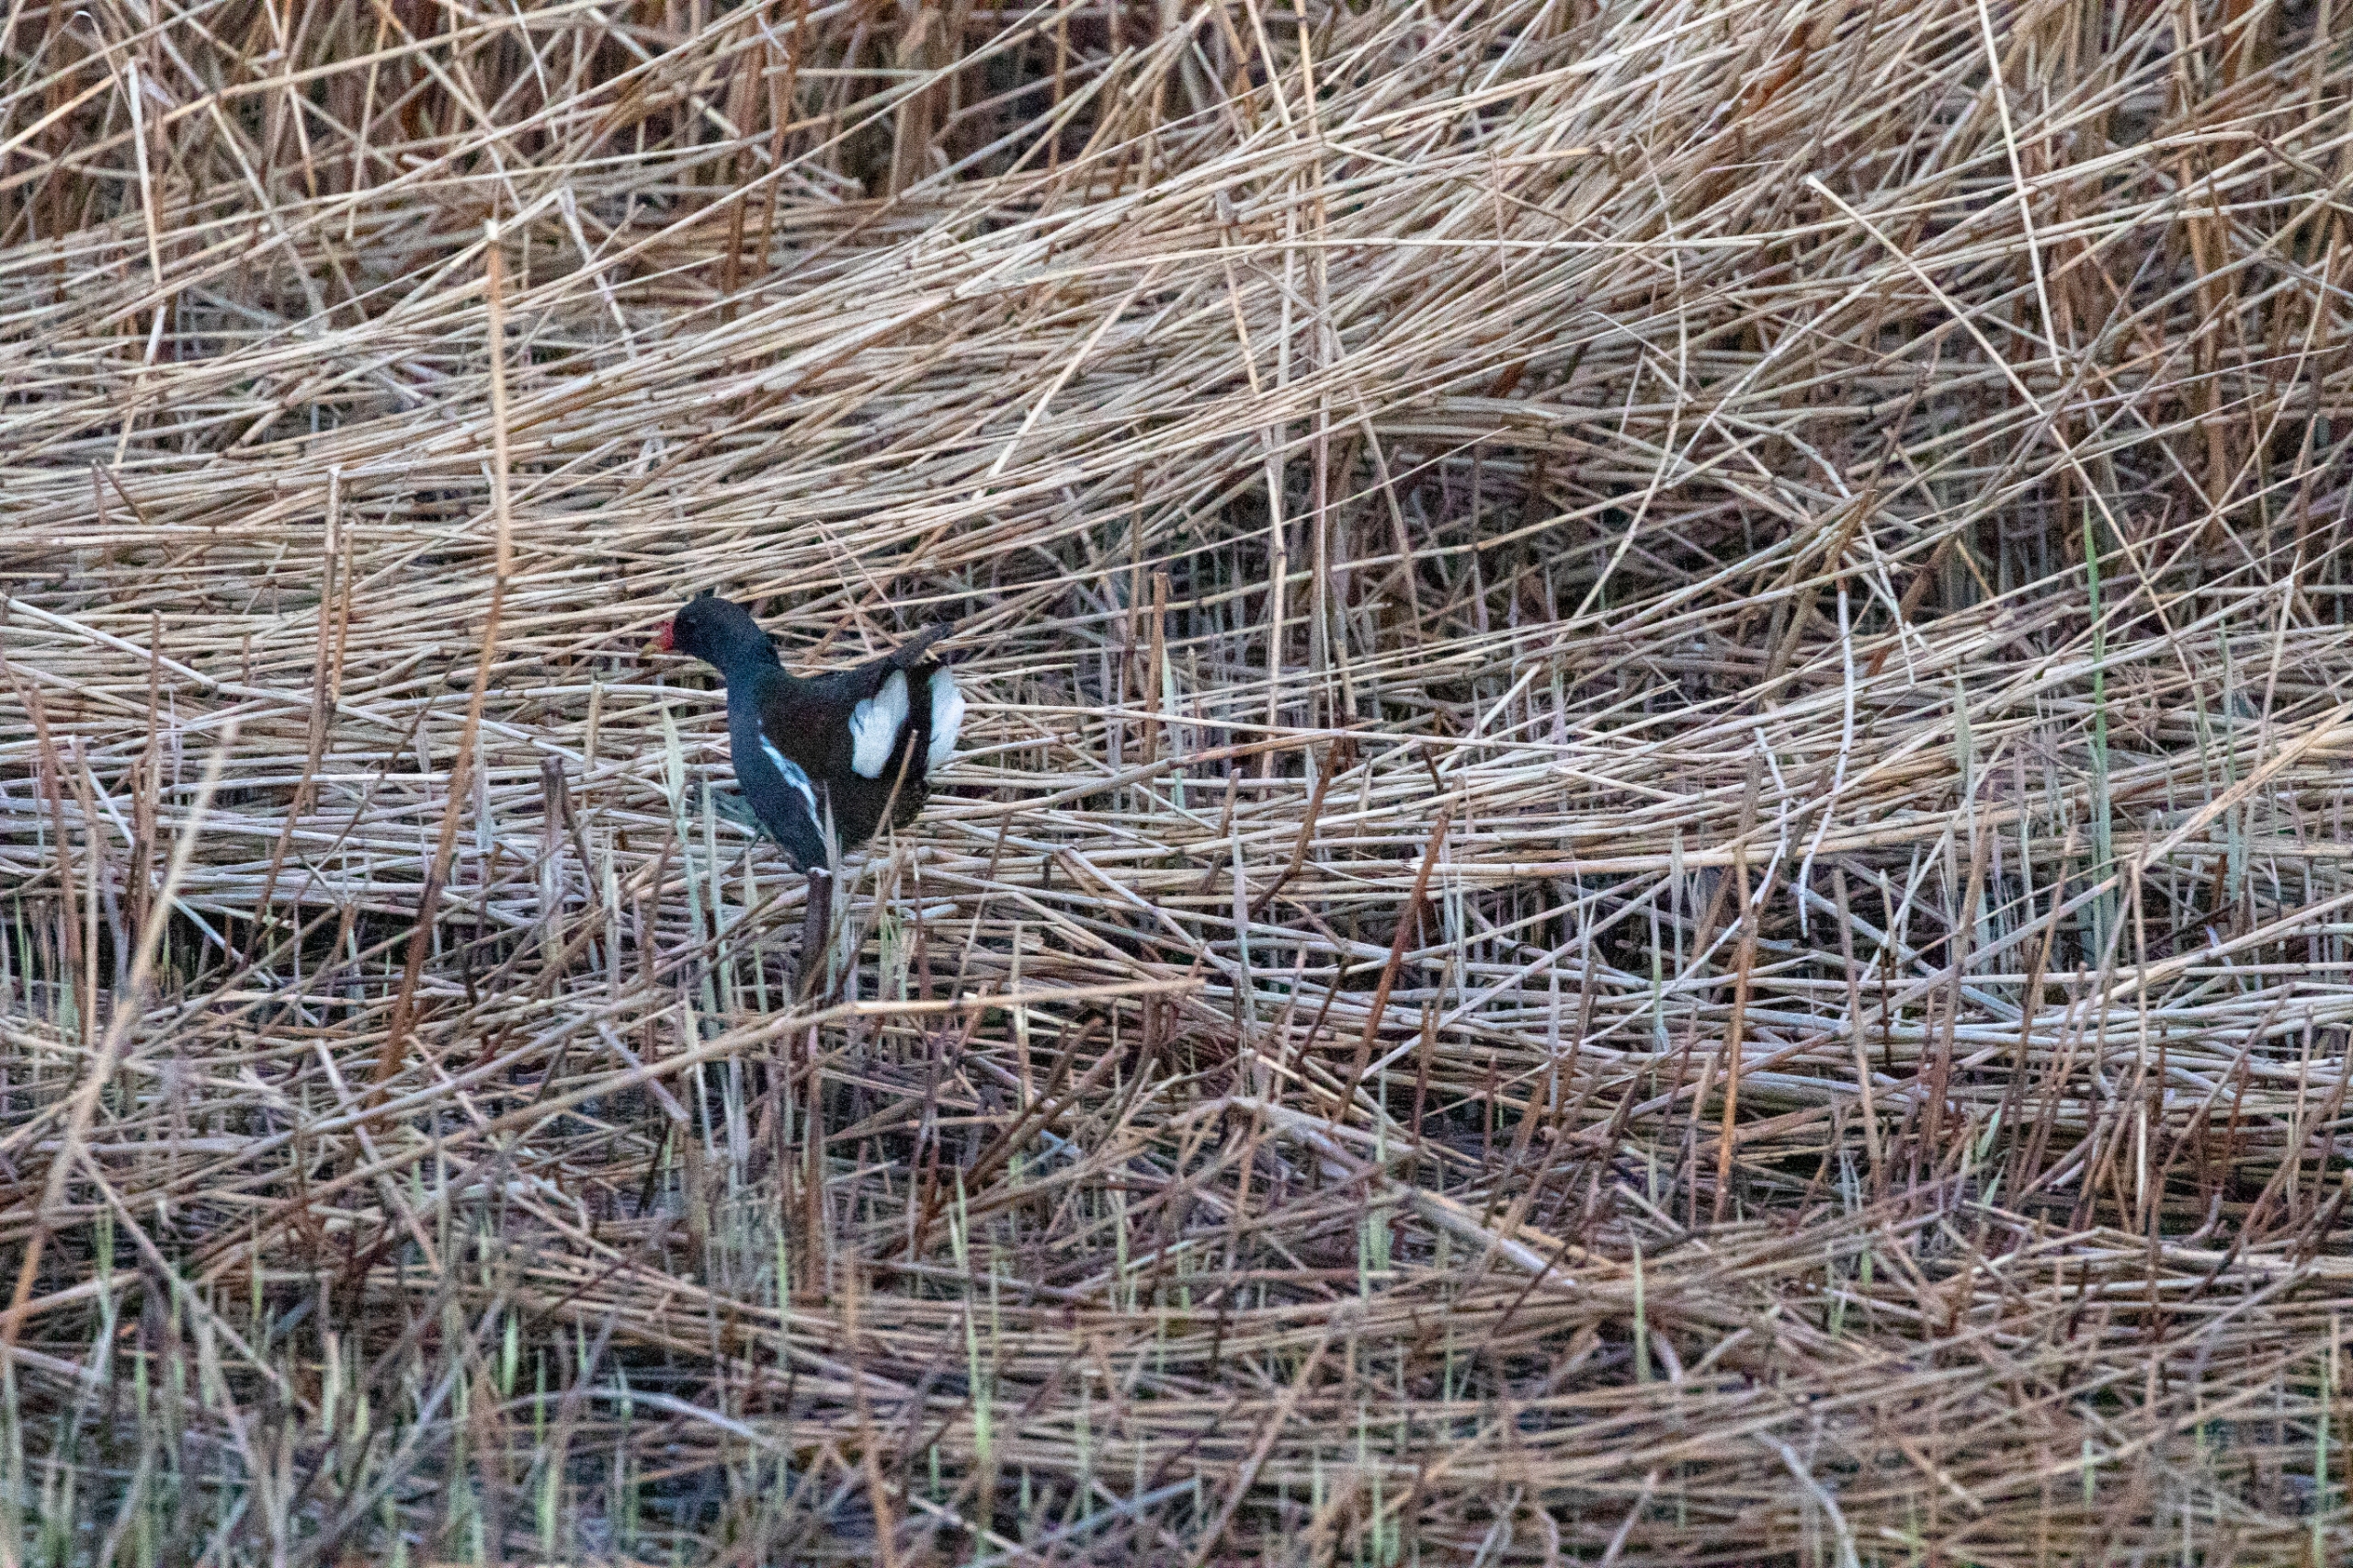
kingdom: Animalia
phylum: Chordata
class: Aves
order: Gruiformes
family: Rallidae
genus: Gallinula
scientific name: Gallinula chloropus
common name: Grønbenet rørhøne
